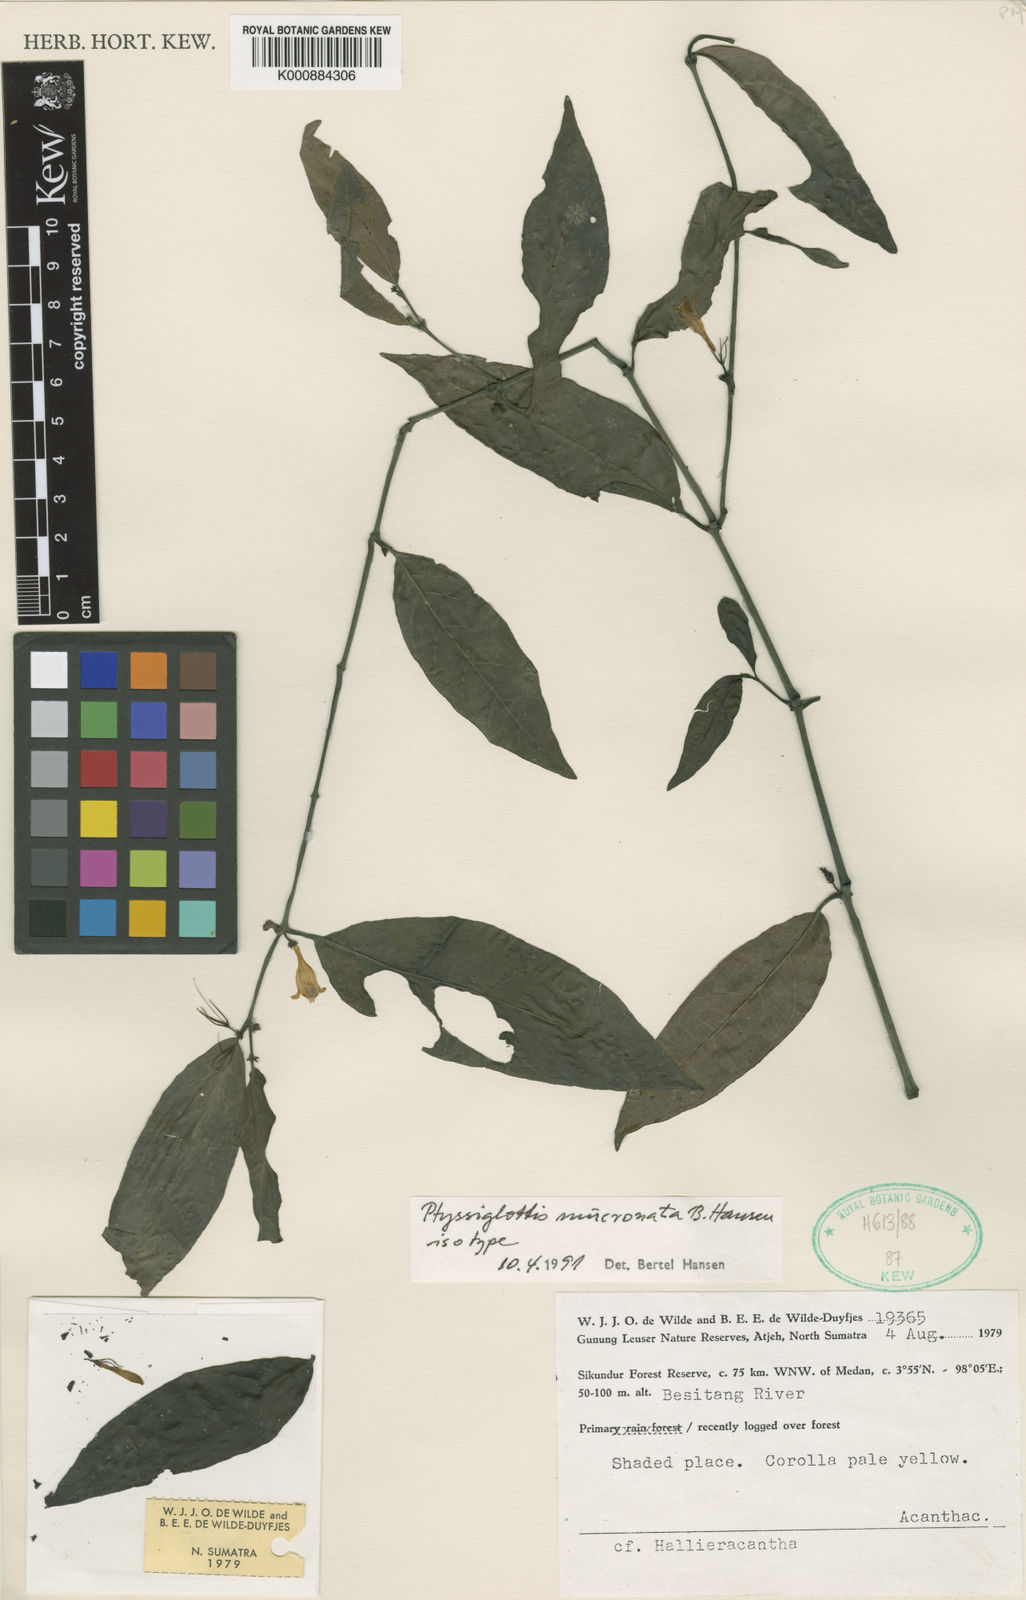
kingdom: Plantae
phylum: Tracheophyta
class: Magnoliopsida
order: Lamiales
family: Acanthaceae
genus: Ptyssiglottis
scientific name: Ptyssiglottis mucronata
